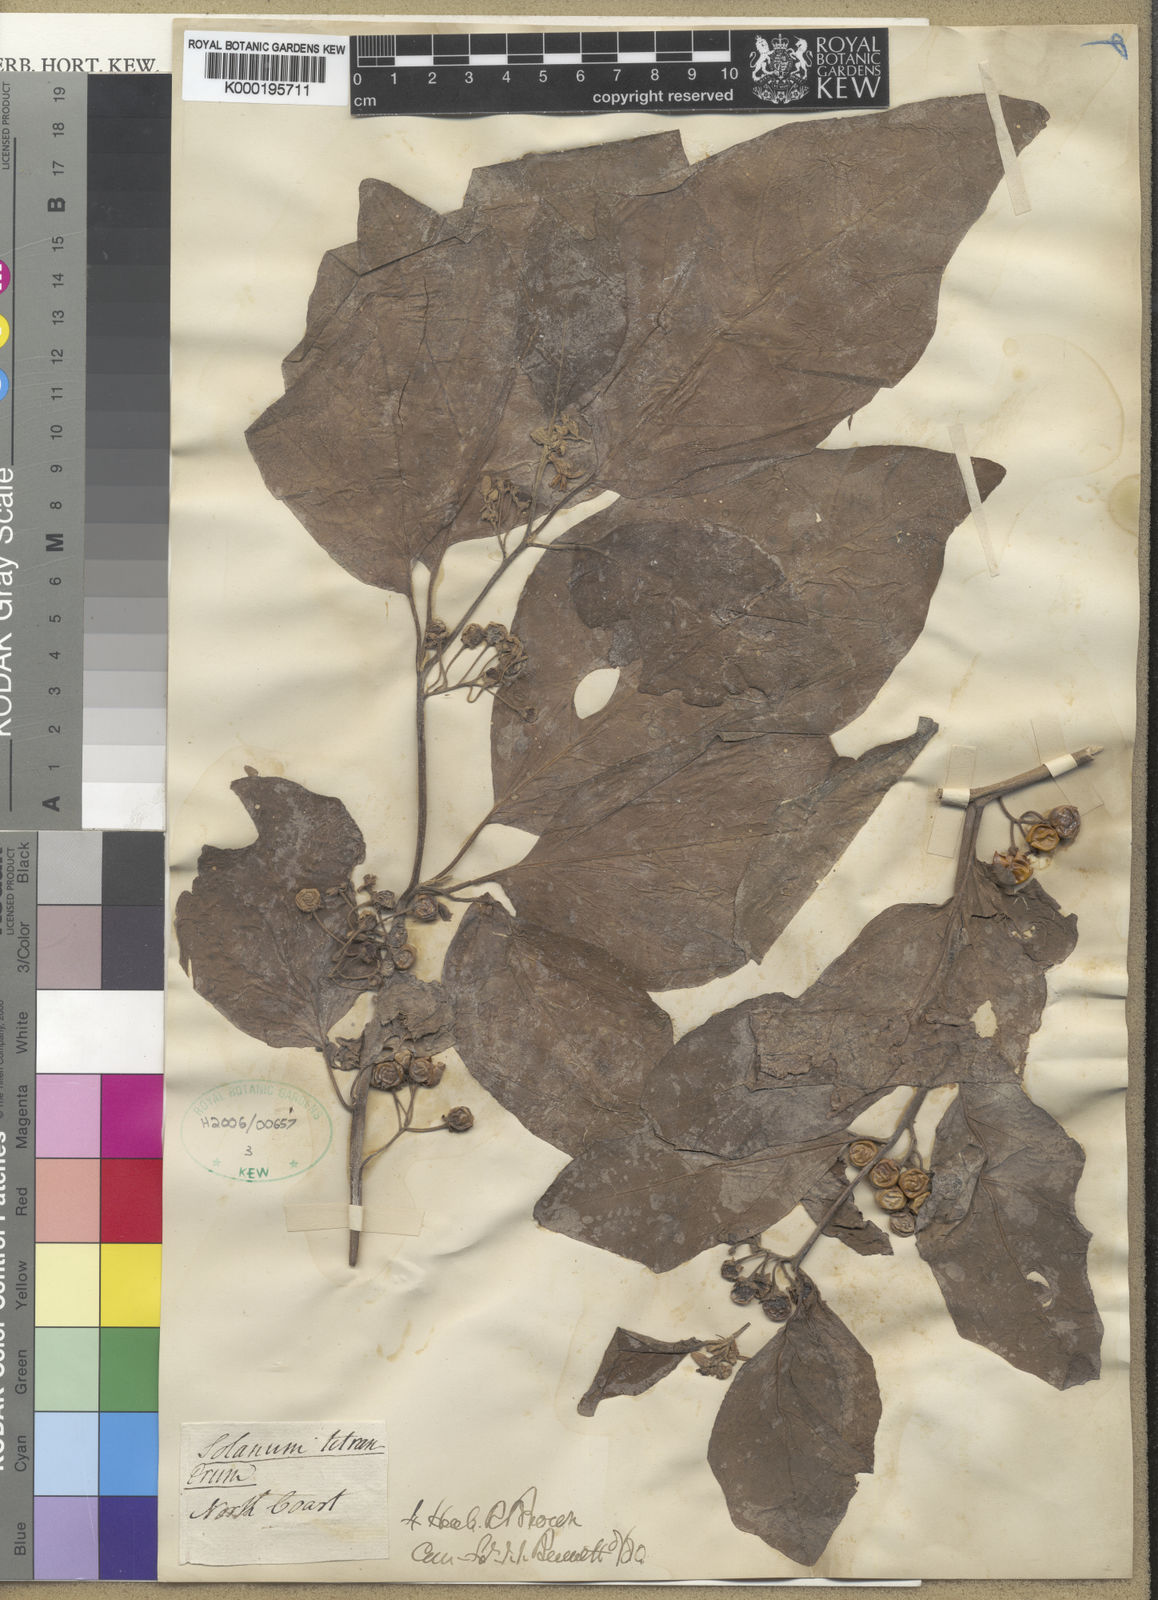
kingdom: Plantae
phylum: Tracheophyta
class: Magnoliopsida
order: Solanales
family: Solanaceae
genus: Solanum
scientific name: Solanum tetrandrum
